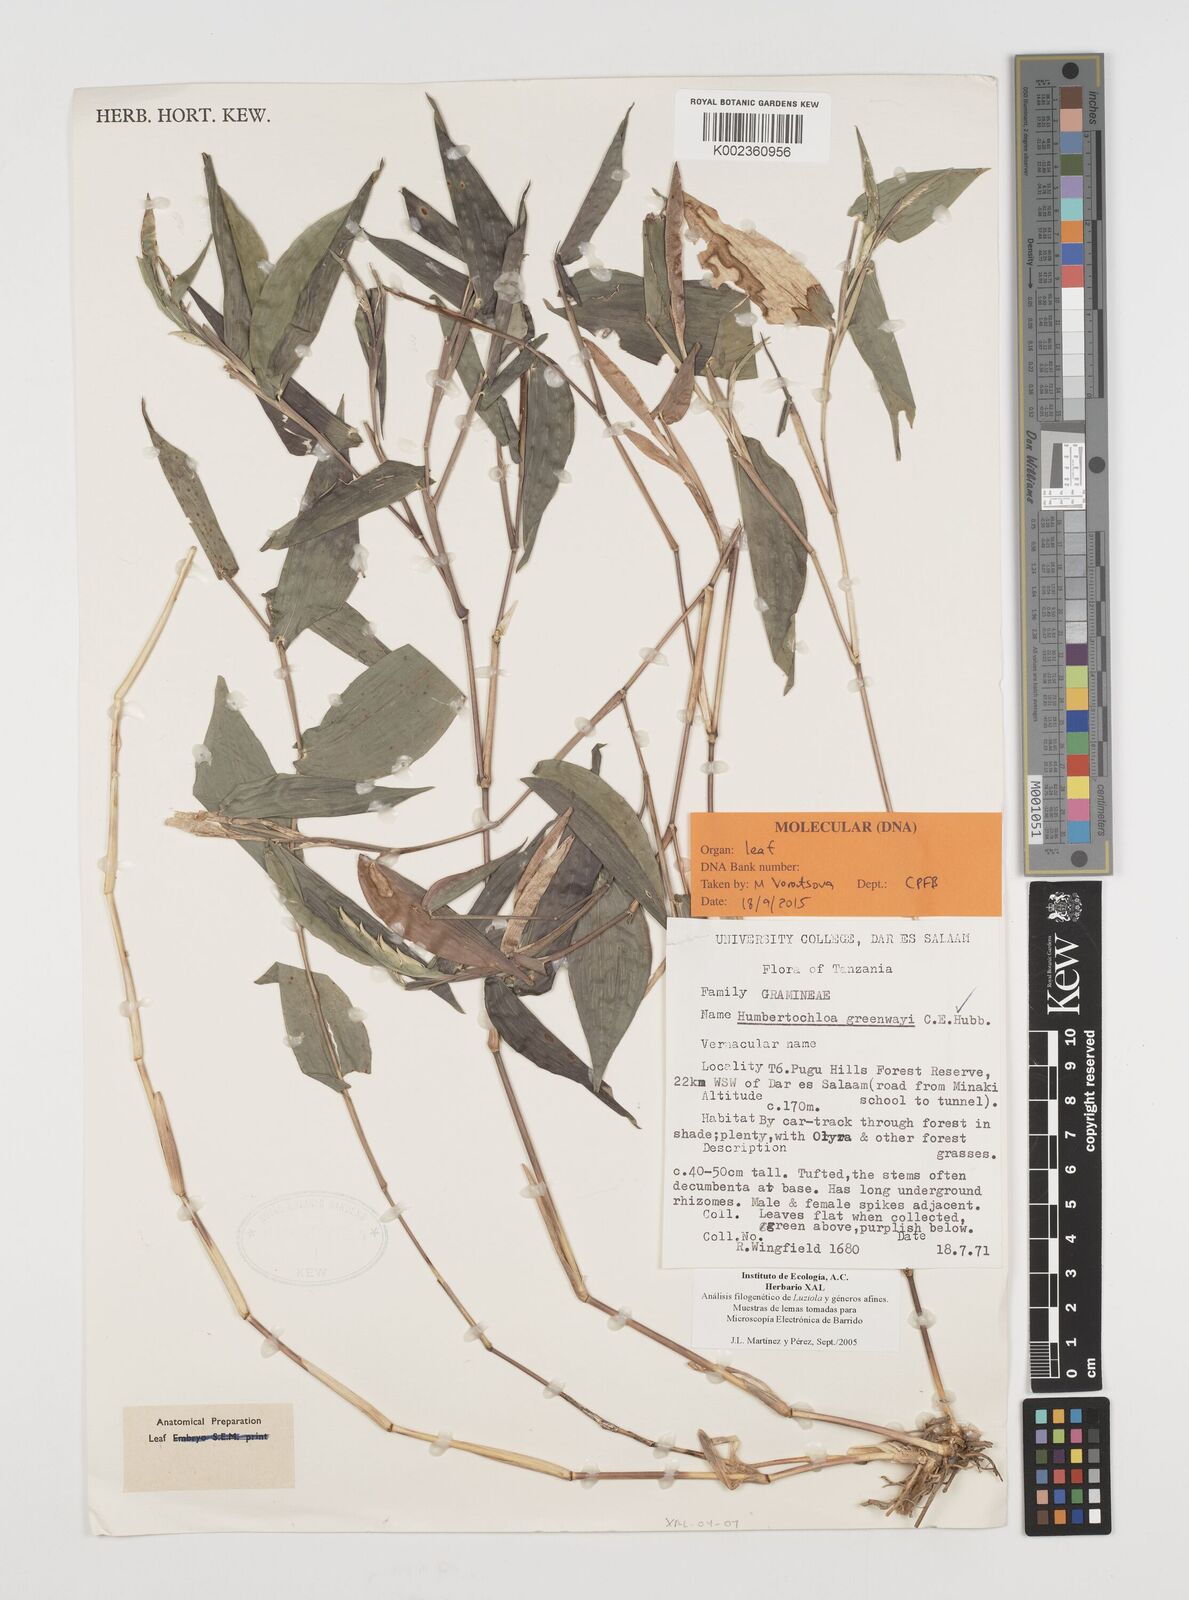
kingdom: Plantae
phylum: Tracheophyta
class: Liliopsida
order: Poales
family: Poaceae
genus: Humbertochloa
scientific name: Humbertochloa greenwayi
